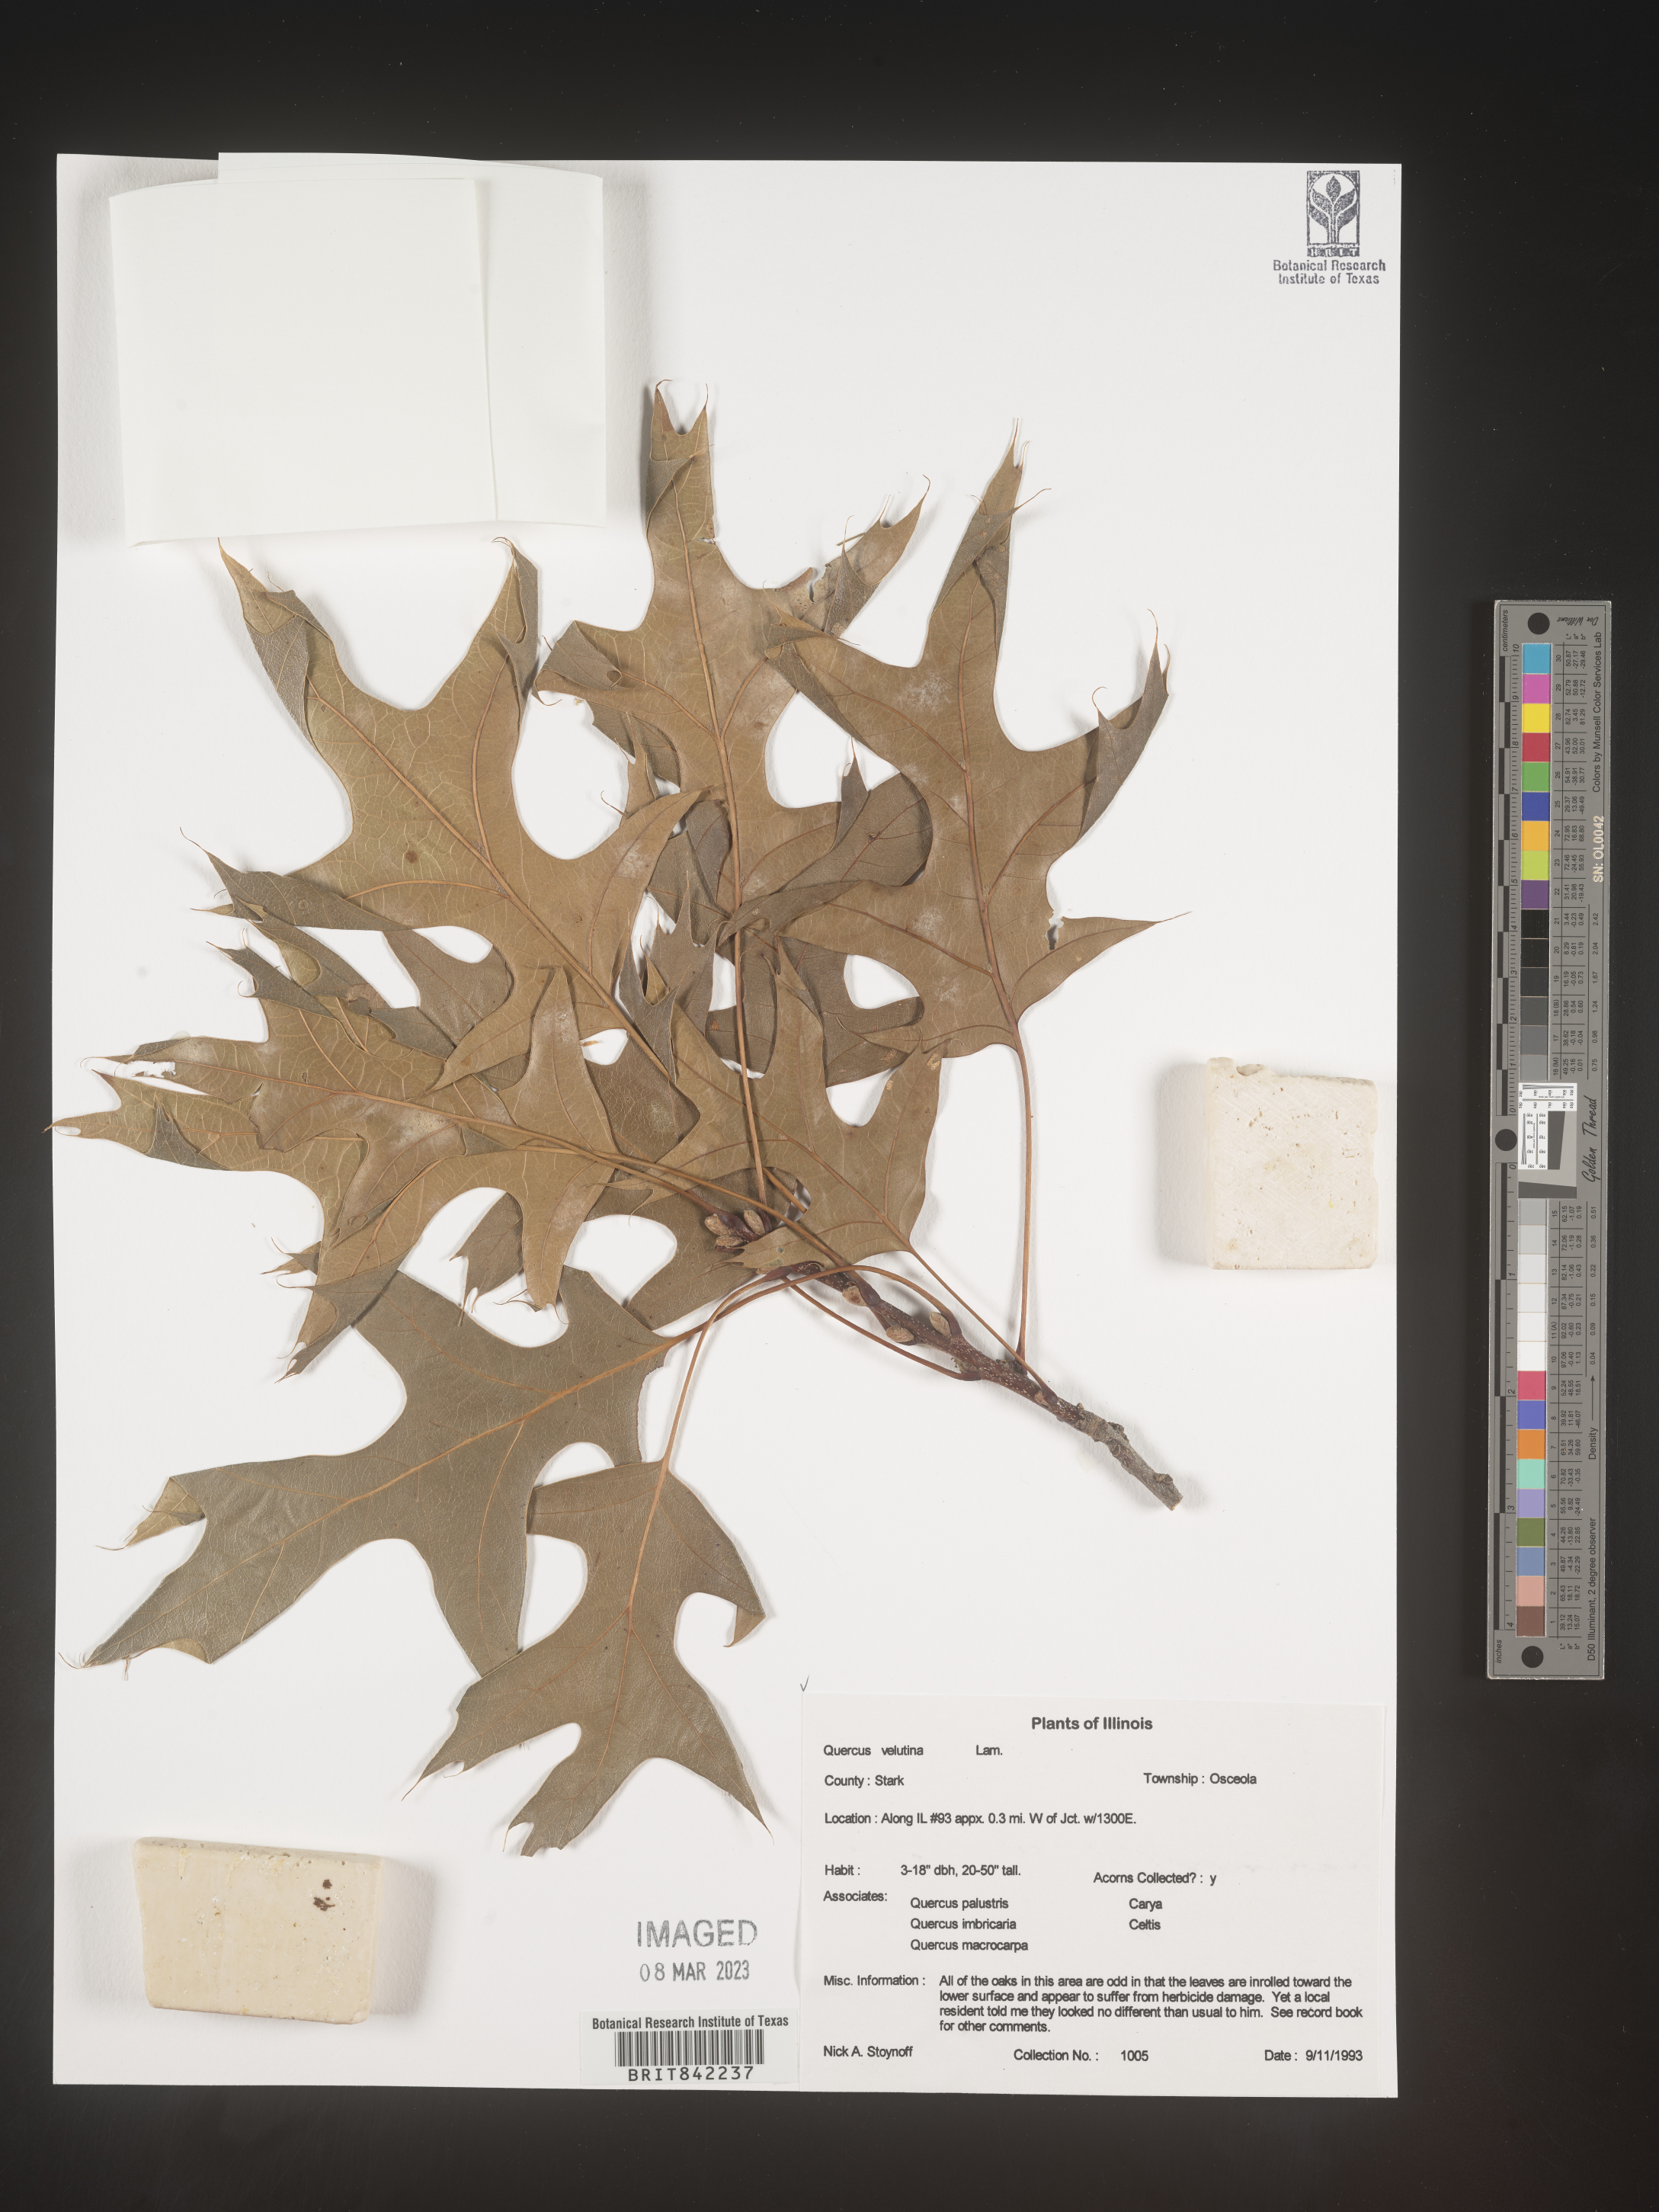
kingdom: Plantae
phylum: Tracheophyta
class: Magnoliopsida
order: Fagales
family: Fagaceae
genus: Quercus
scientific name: Quercus velutina
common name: Black oak
